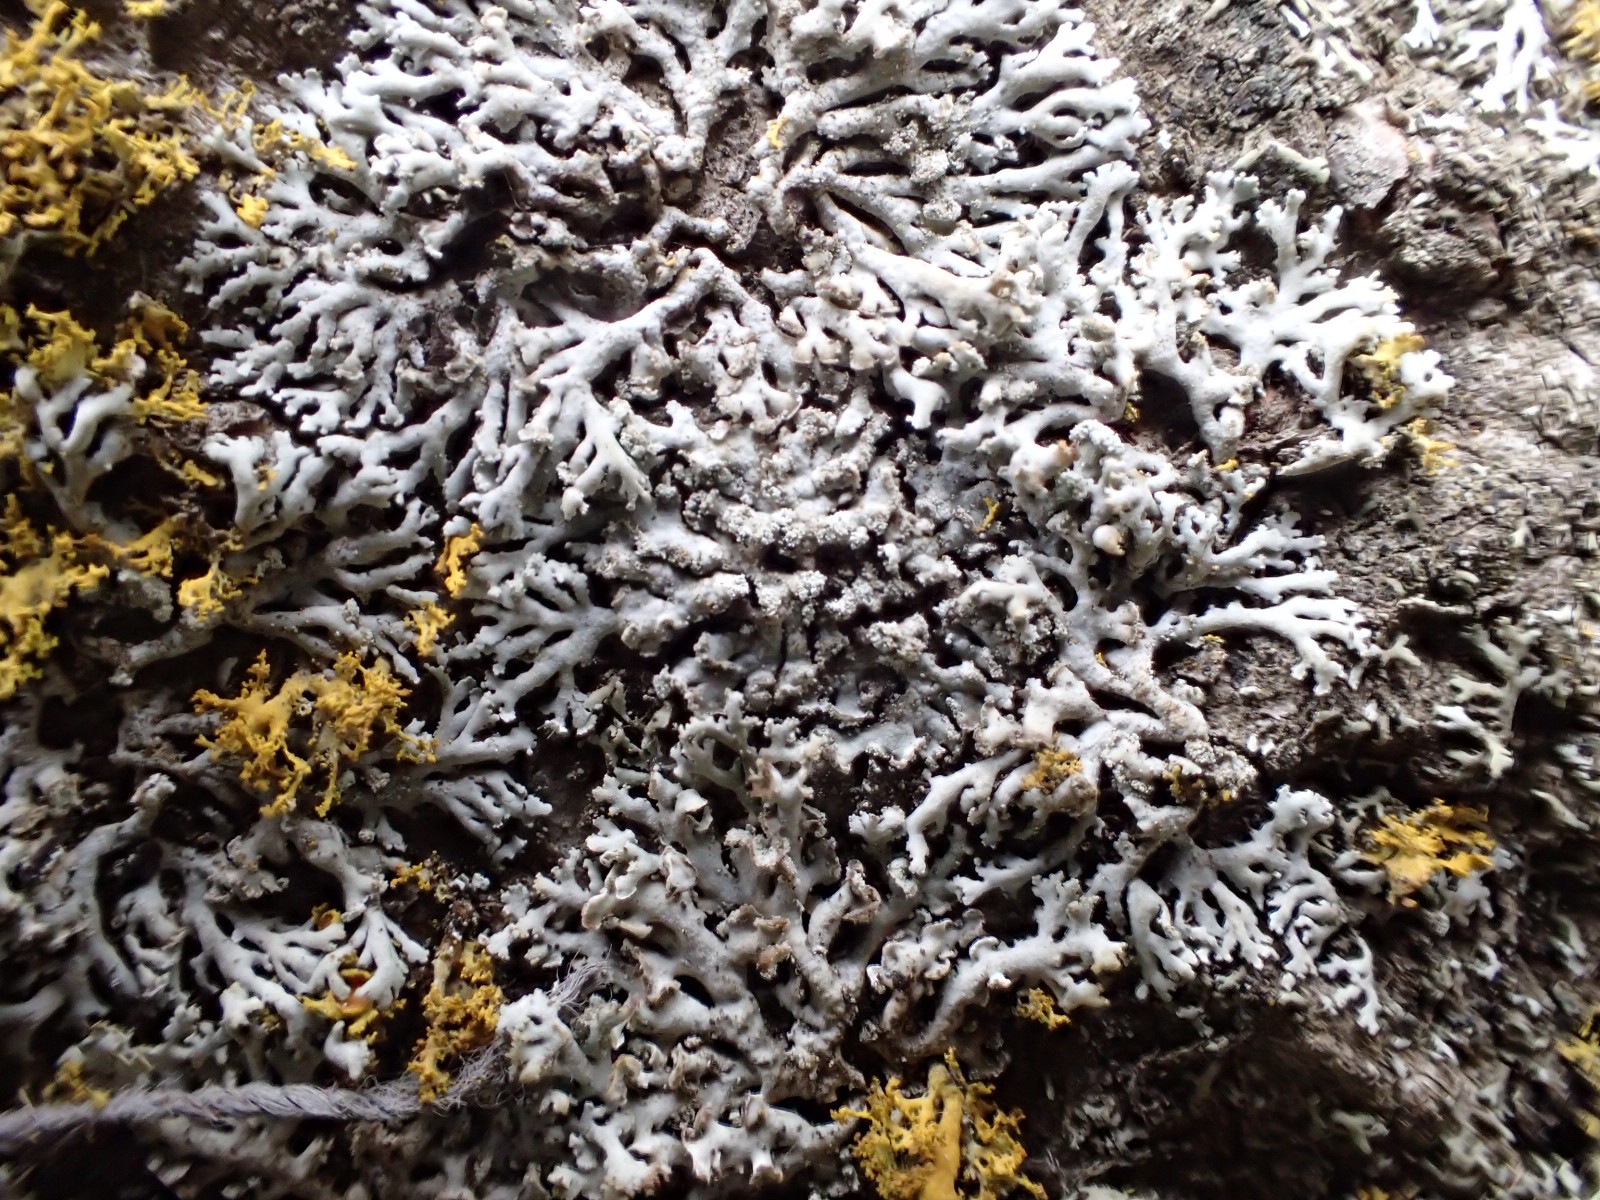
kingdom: Fungi
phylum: Ascomycota
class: Lecanoromycetes
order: Caliciales
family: Physciaceae
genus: Physcia
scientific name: Physcia dubia
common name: fuglestens-rosetlav
